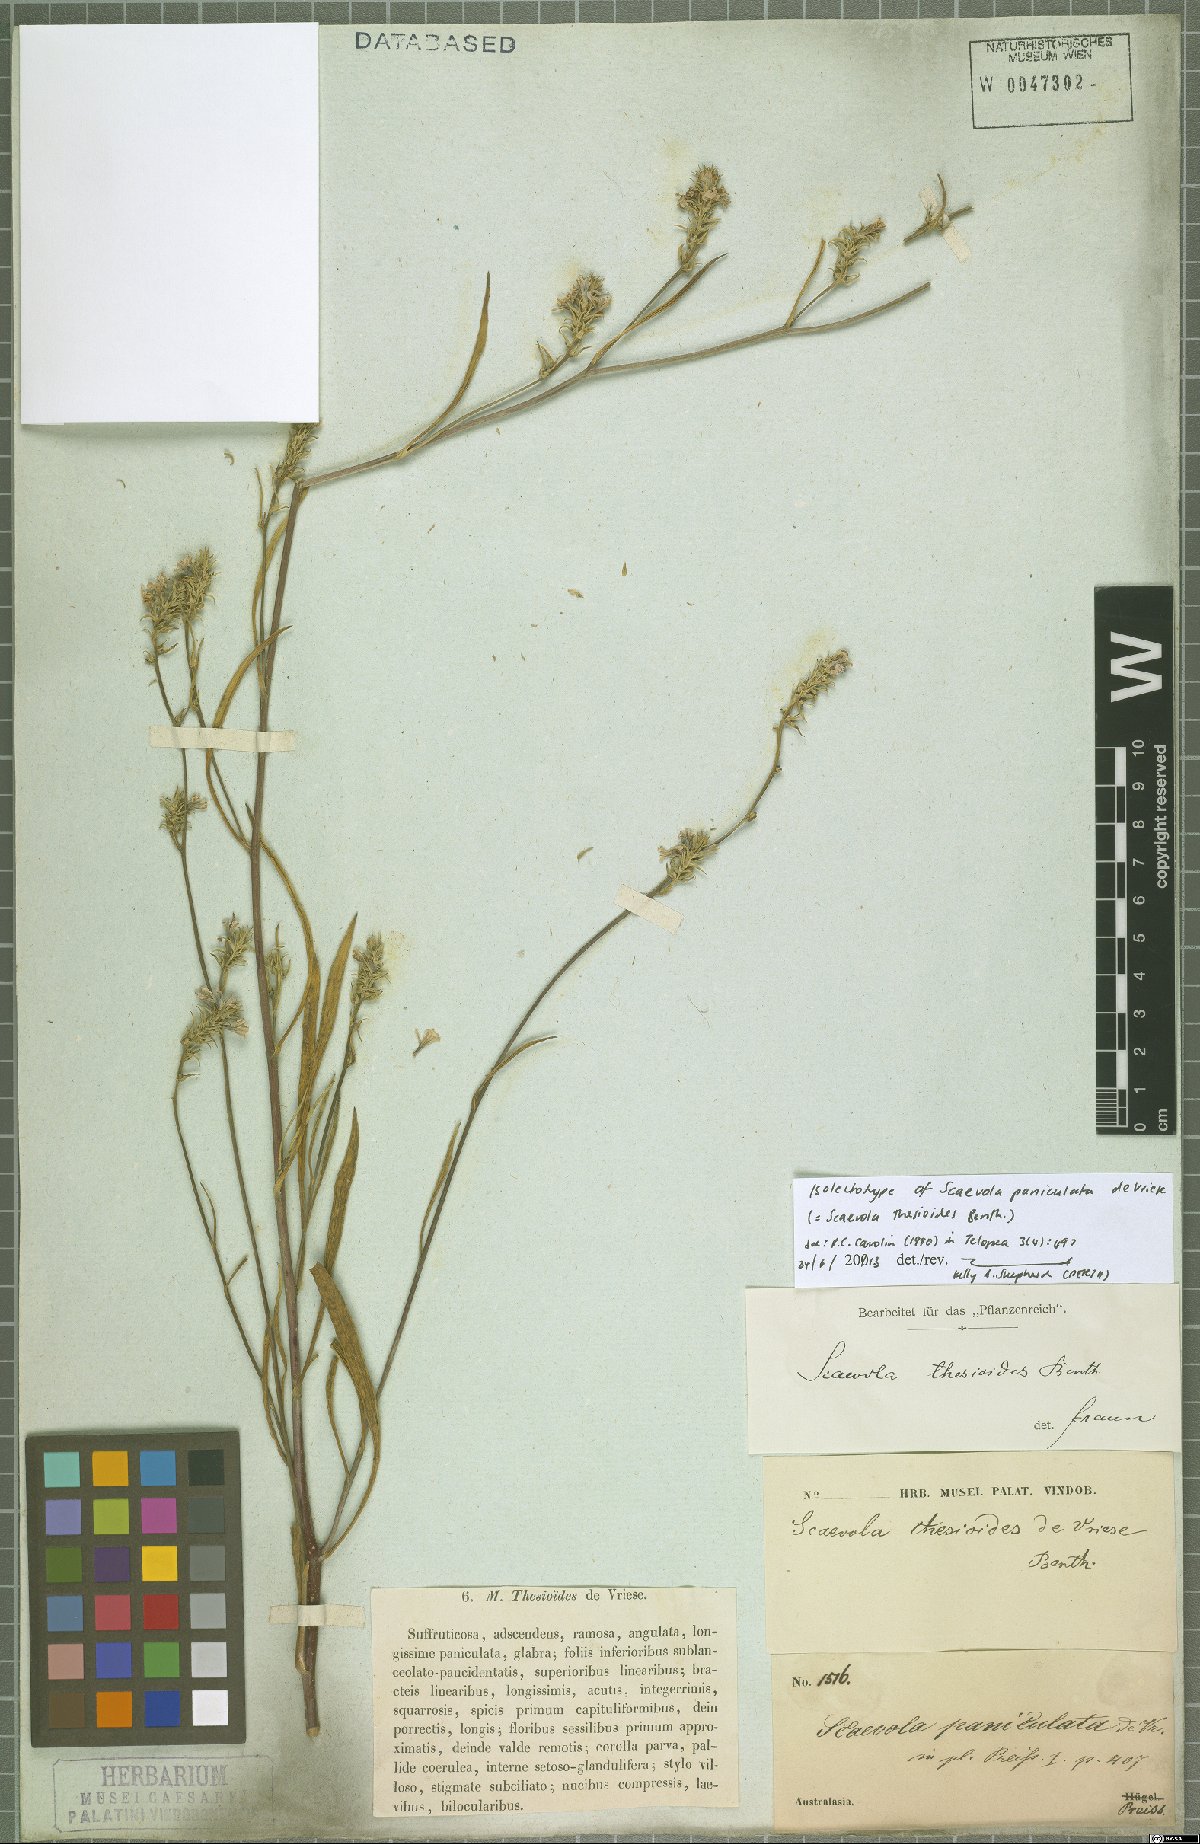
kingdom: Plantae
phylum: Tracheophyta
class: Magnoliopsida
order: Asterales
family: Goodeniaceae
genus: Scaevola
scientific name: Scaevola thesioides
